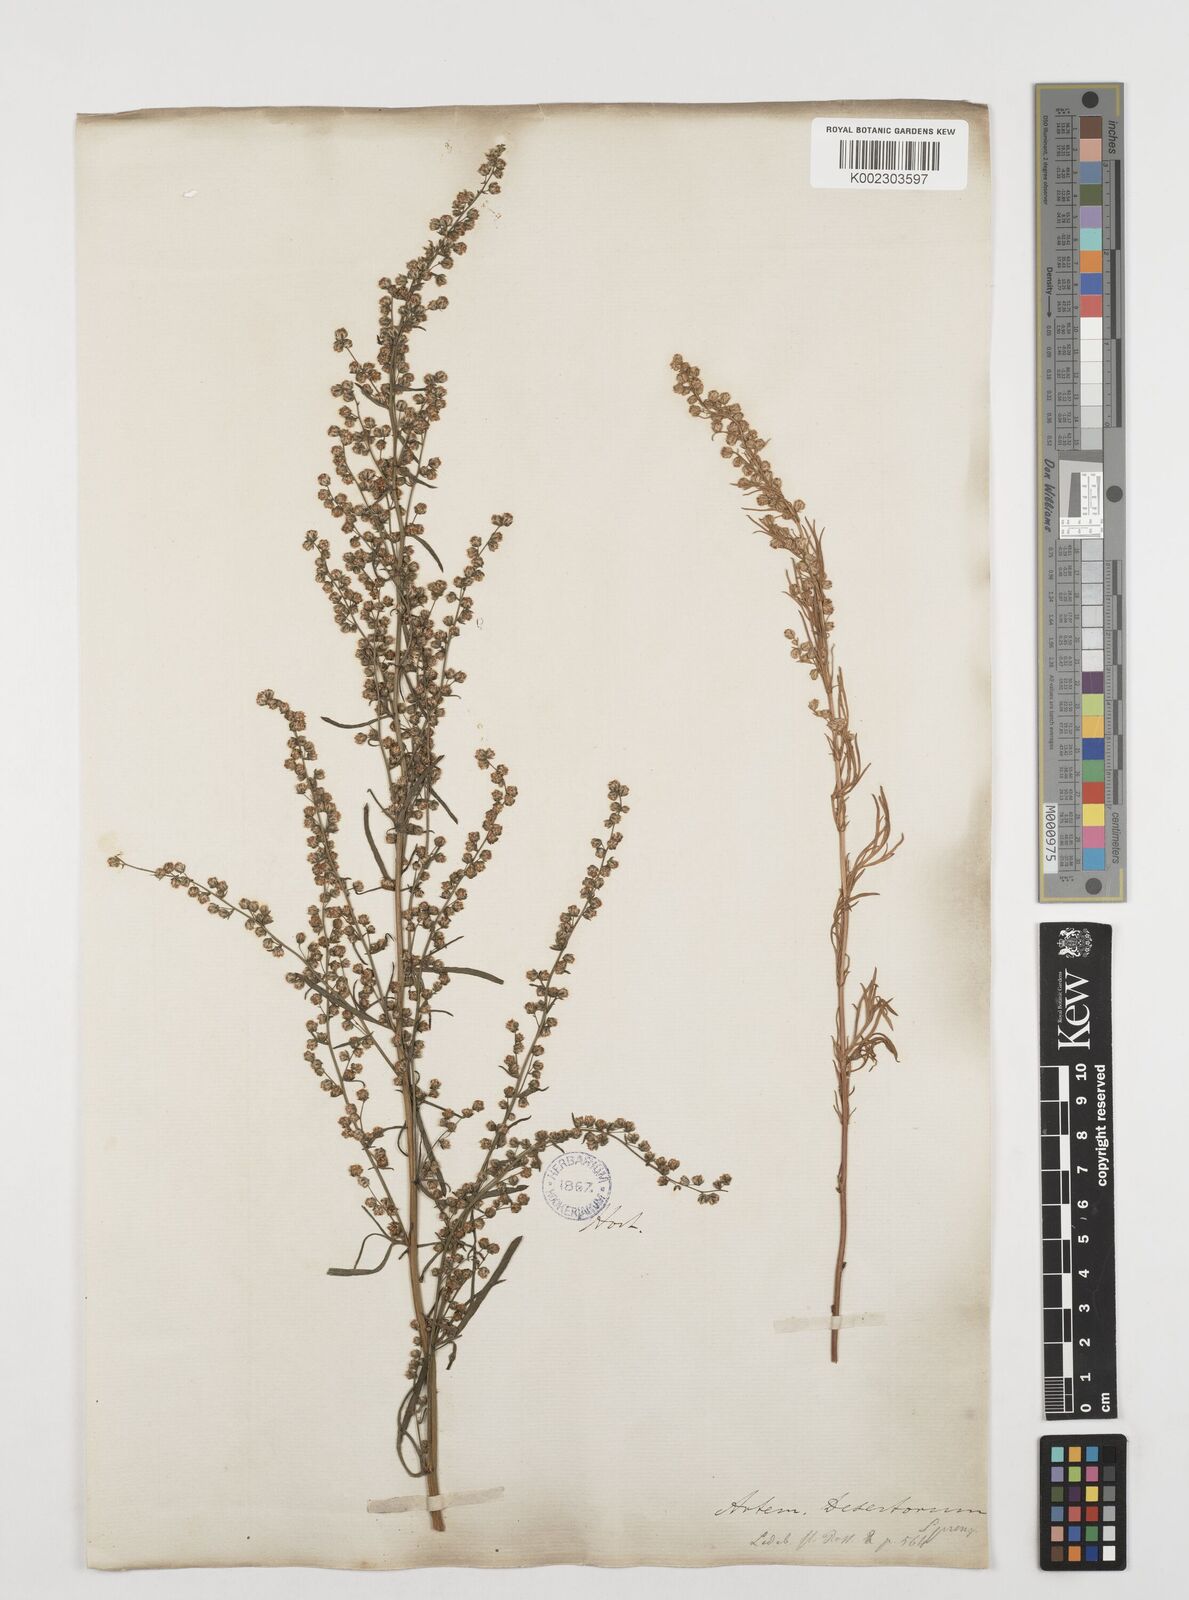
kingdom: Plantae
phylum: Tracheophyta
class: Magnoliopsida
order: Asterales
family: Asteraceae
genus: Artemisia
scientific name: Artemisia desertorum
